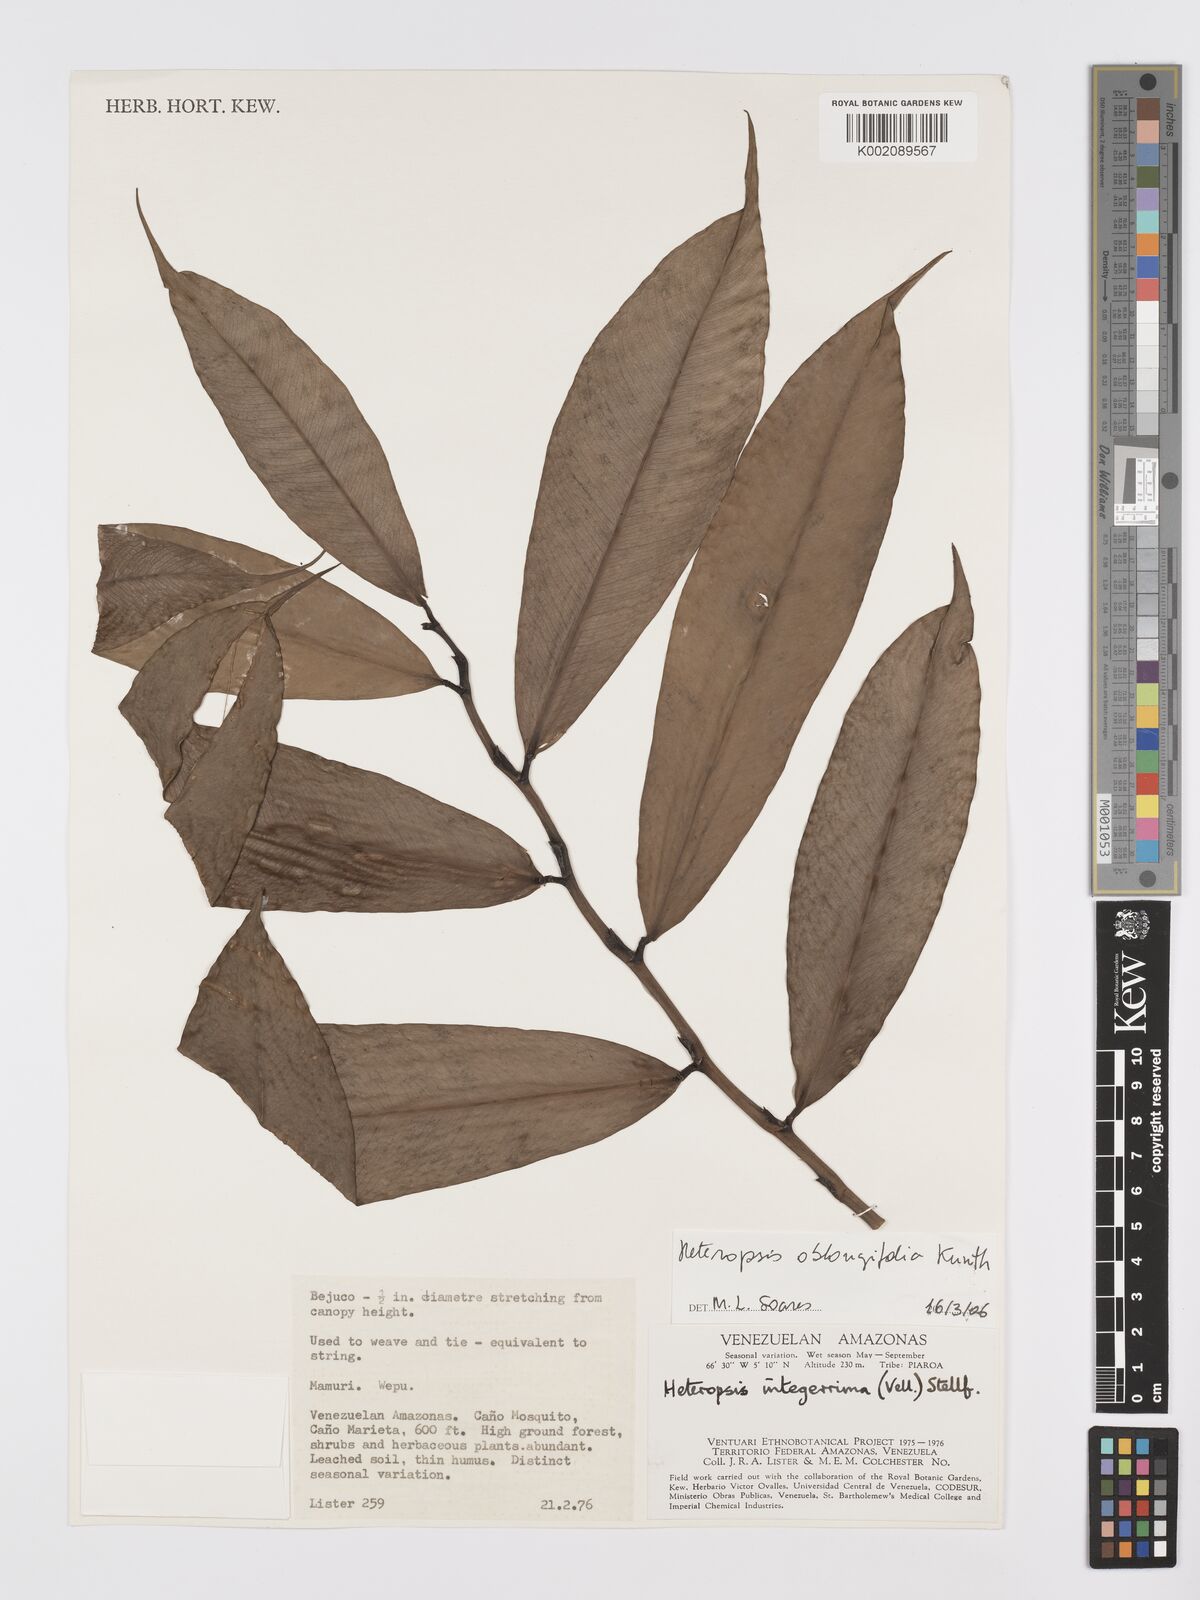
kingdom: Plantae
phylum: Tracheophyta
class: Liliopsida
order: Alismatales
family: Araceae
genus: Heteropsis
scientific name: Heteropsis oblongifolia
